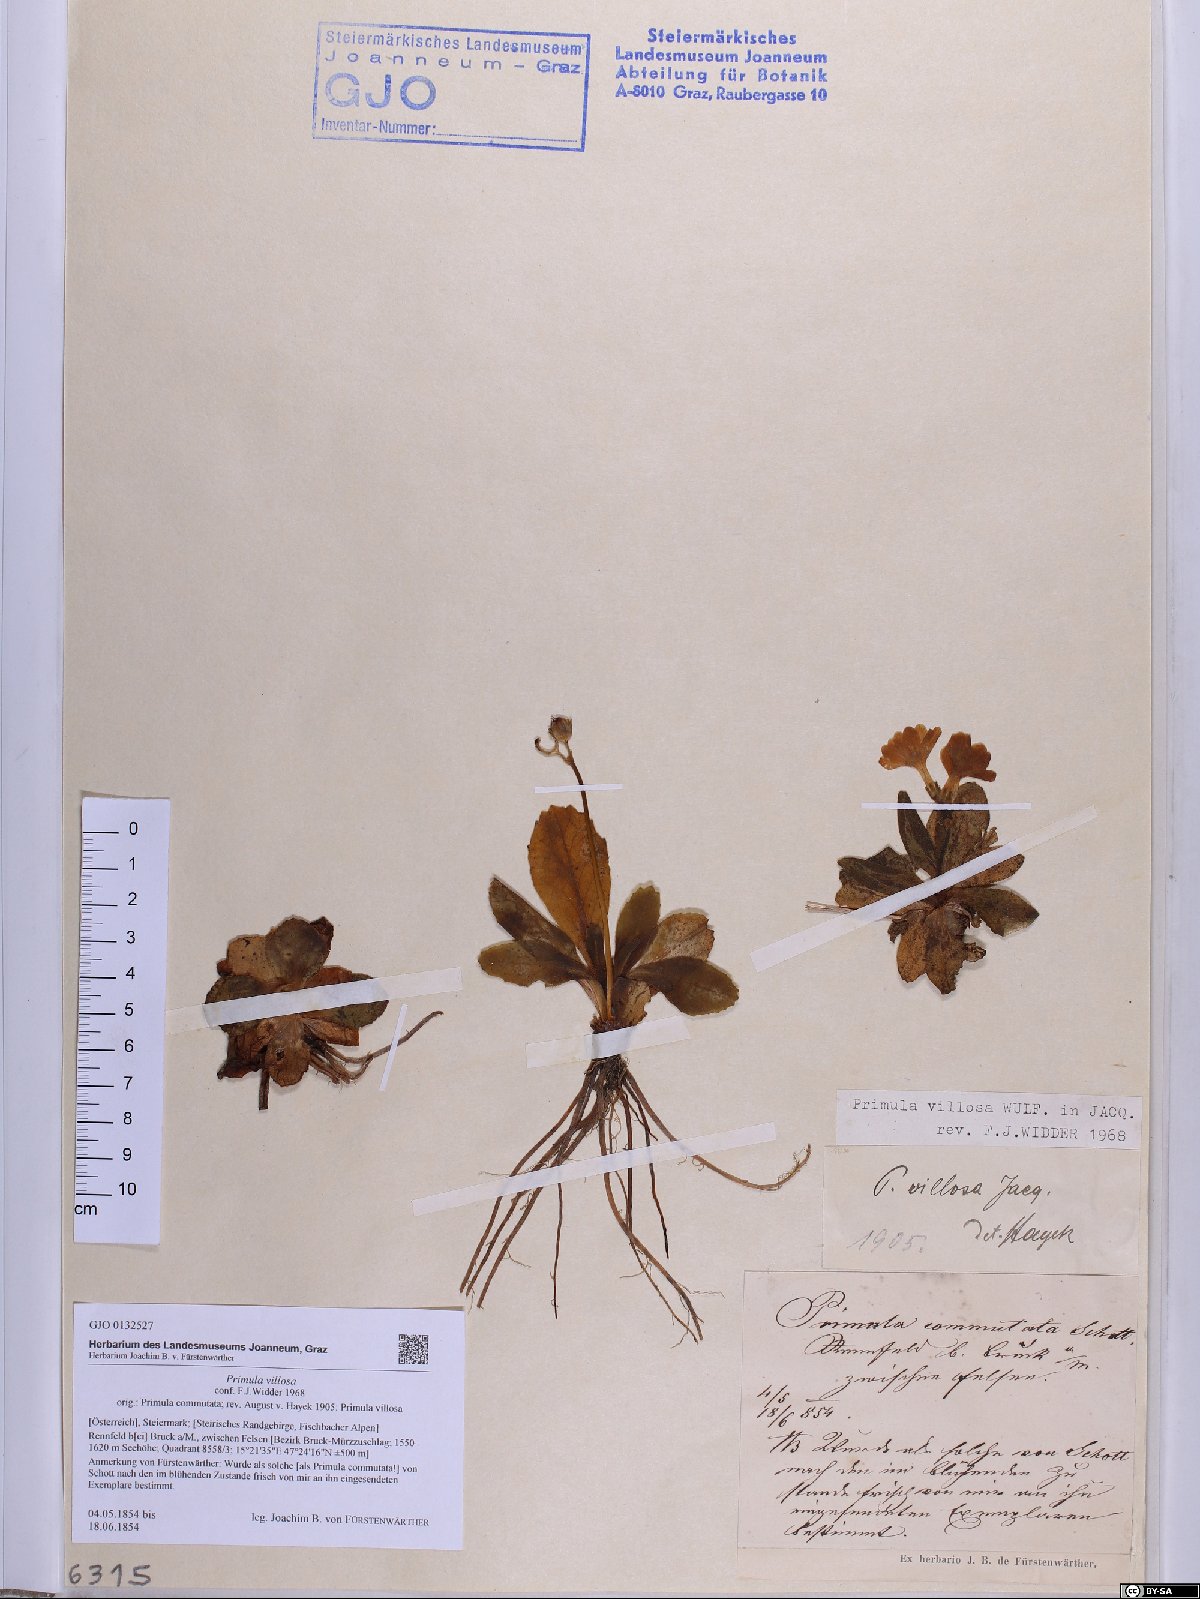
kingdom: Plantae
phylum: Tracheophyta
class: Magnoliopsida
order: Ericales
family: Primulaceae
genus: Primula
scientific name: Primula villosa
